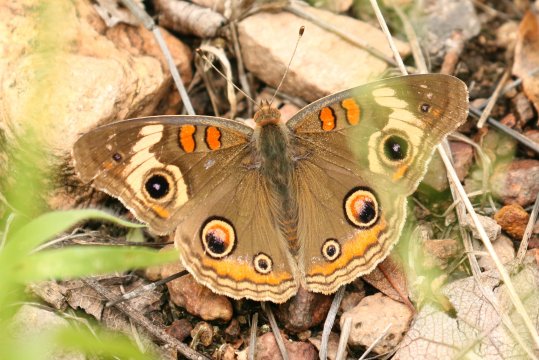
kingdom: Animalia
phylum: Arthropoda
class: Insecta
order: Lepidoptera
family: Nymphalidae
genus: Junonia
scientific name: Junonia coenia
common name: Common Buckeye
